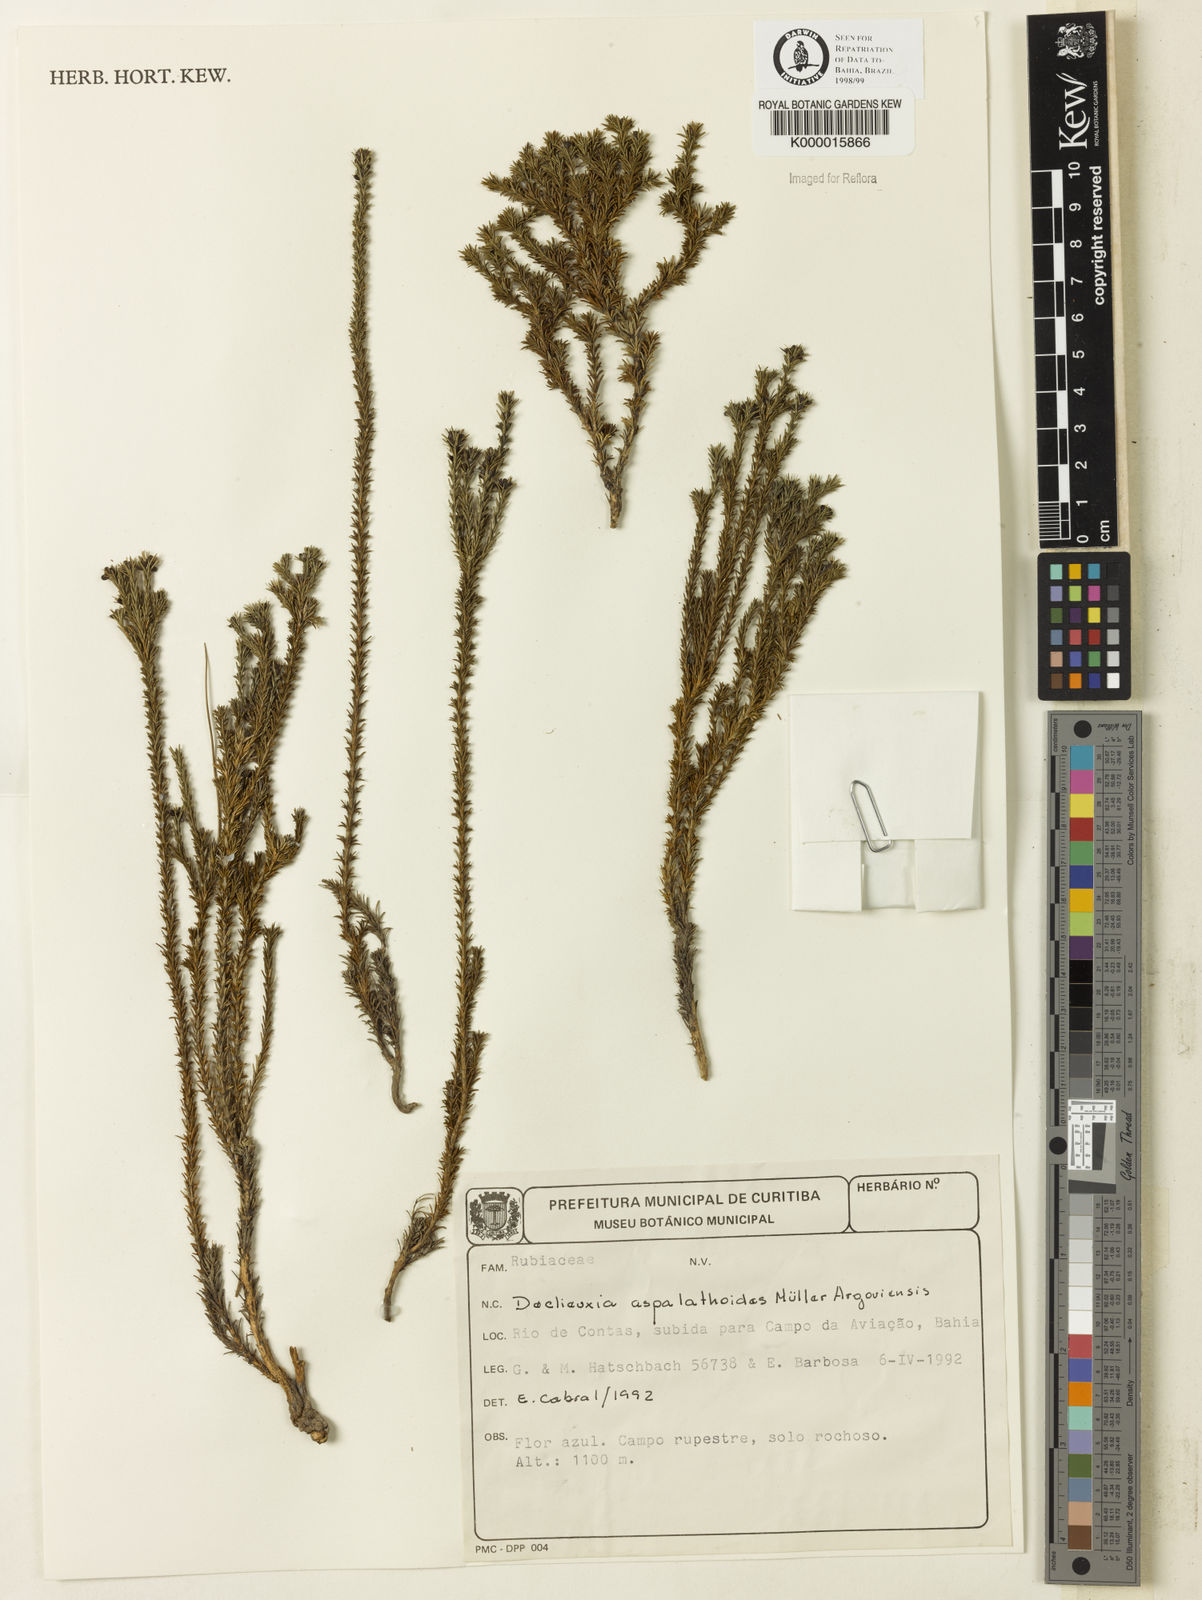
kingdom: Plantae
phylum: Tracheophyta
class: Magnoliopsida
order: Gentianales
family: Rubiaceae
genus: Declieuxia
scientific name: Declieuxia aspalathoides
